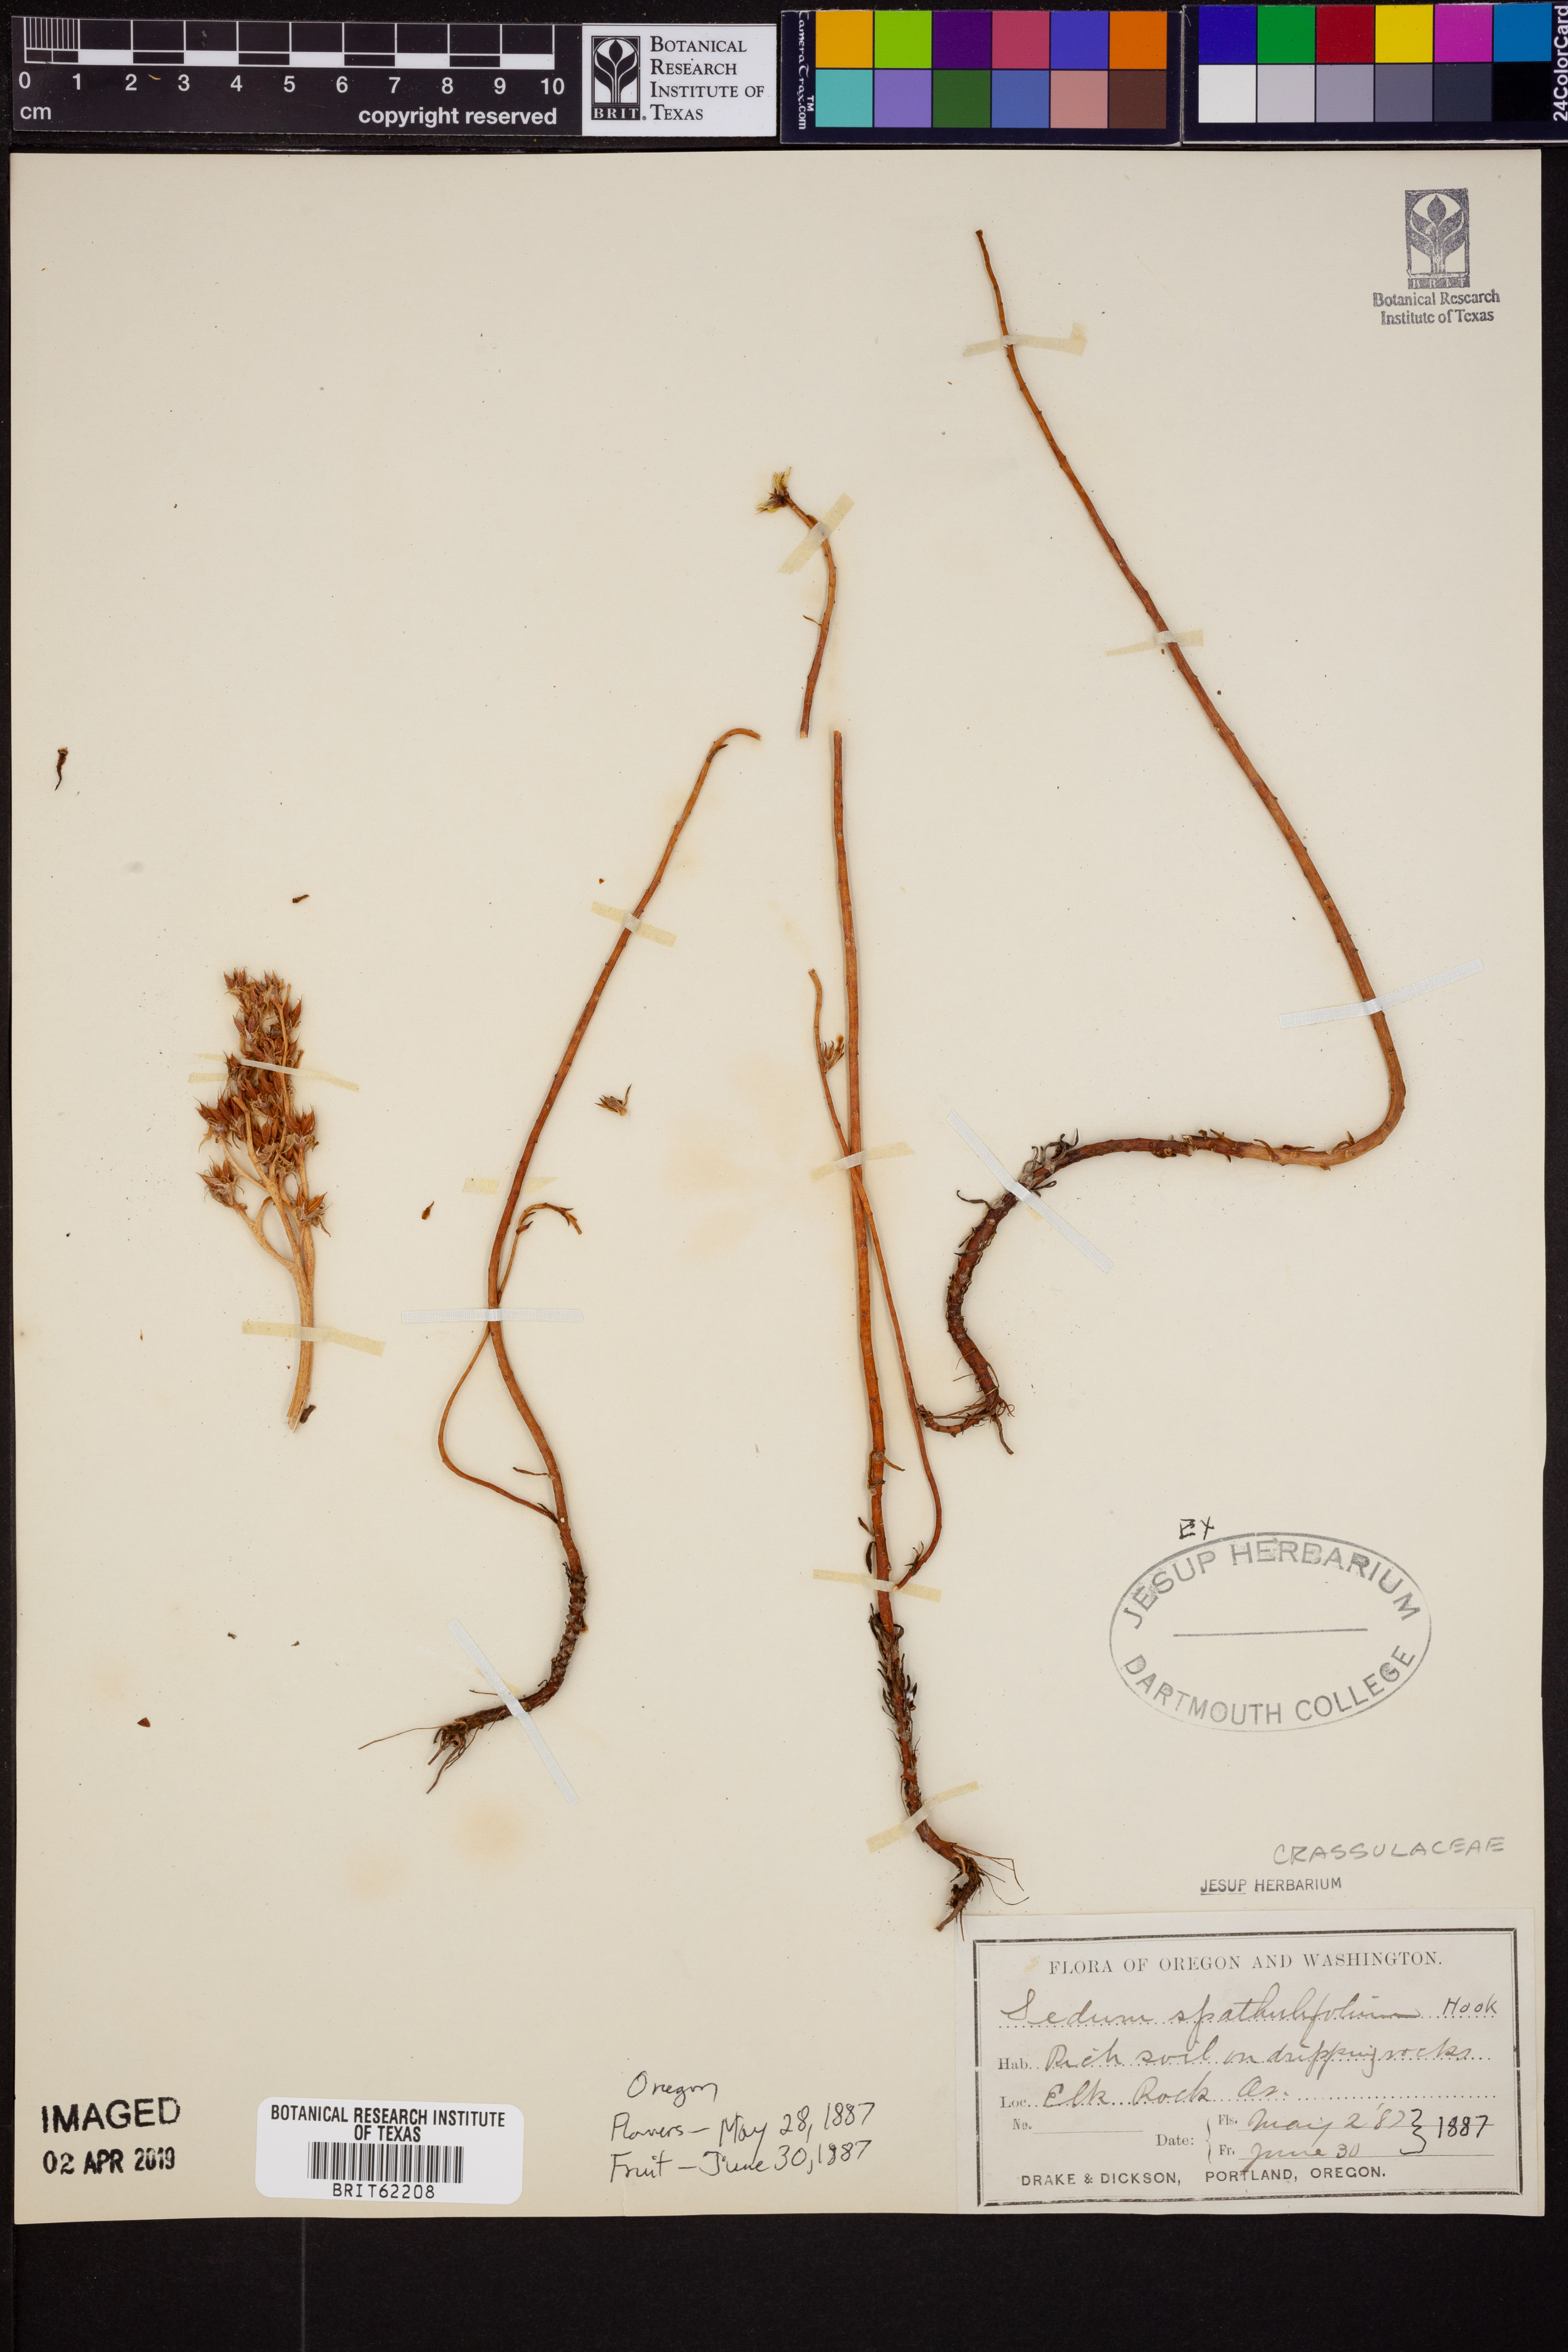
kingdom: Plantae
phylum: Tracheophyta
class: Magnoliopsida
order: Saxifragales
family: Crassulaceae
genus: Sedum
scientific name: Sedum spathulifolium
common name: Colorado stonecrop
